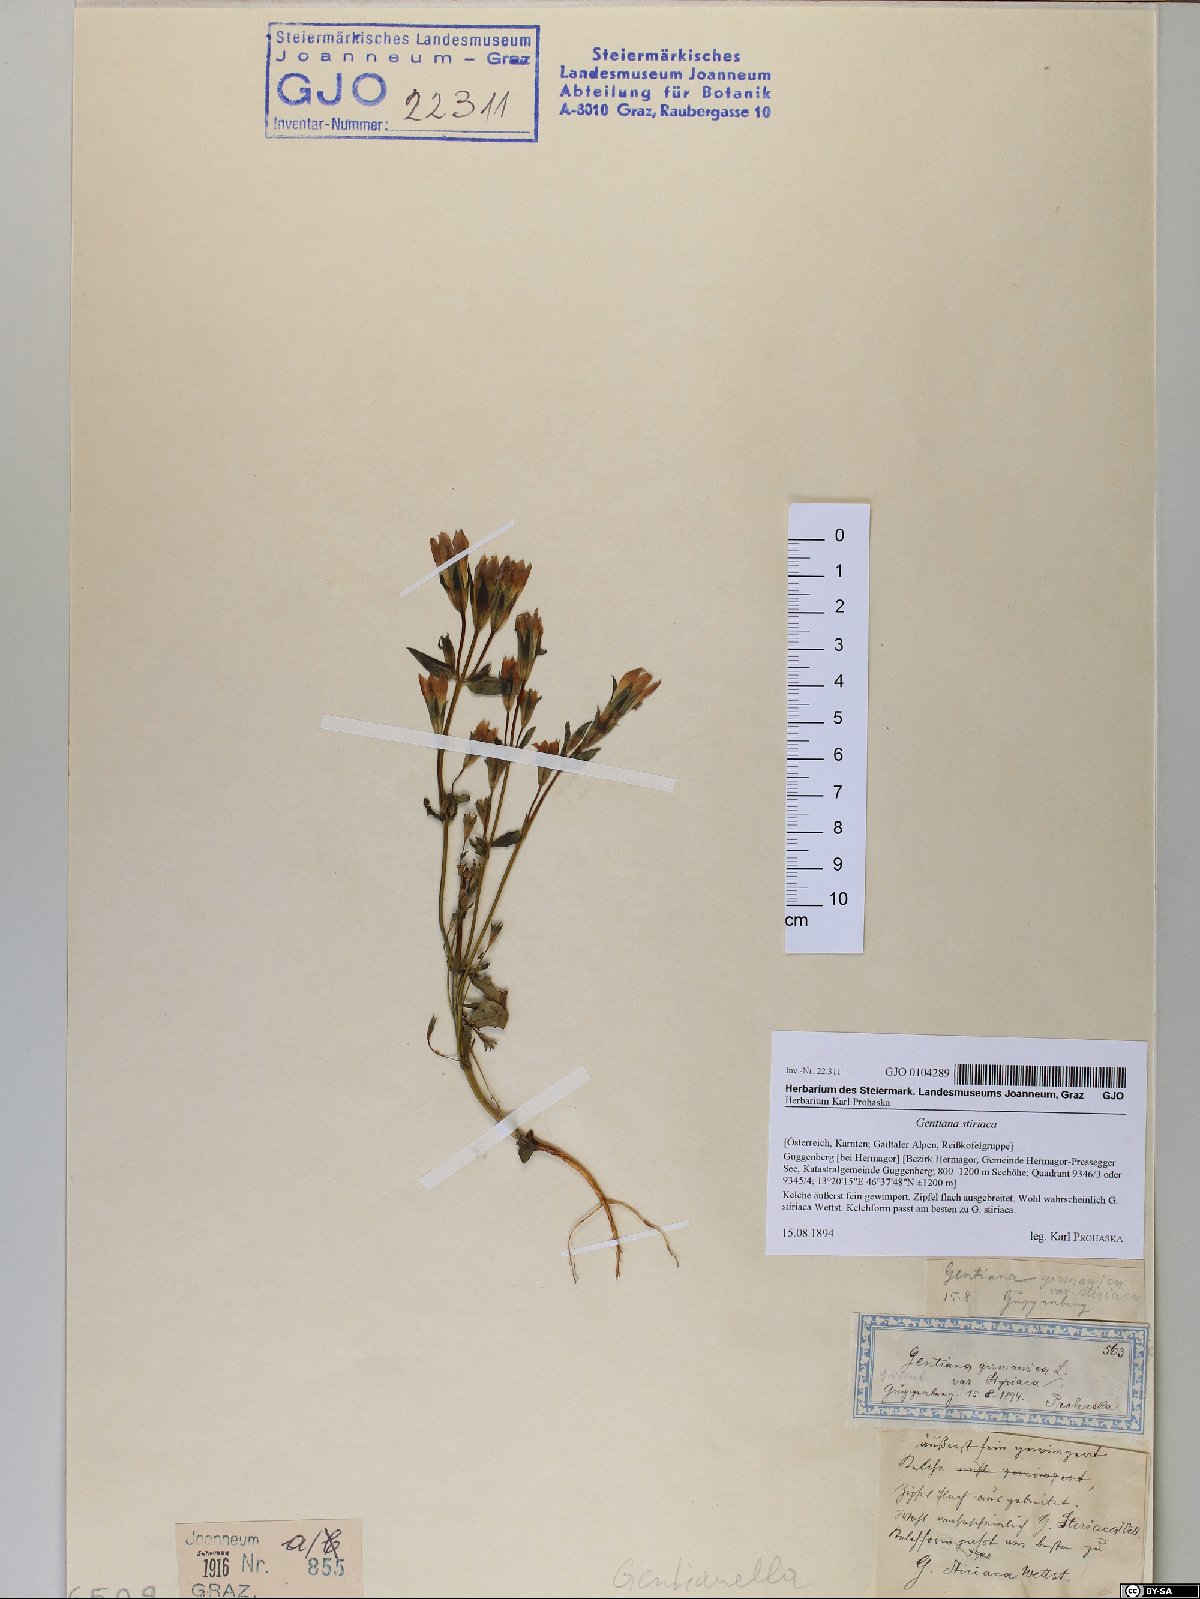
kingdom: Plantae
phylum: Tracheophyta
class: Magnoliopsida
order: Gentianales
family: Gentianaceae
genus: Gentianella
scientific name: Gentianella rhaetica
